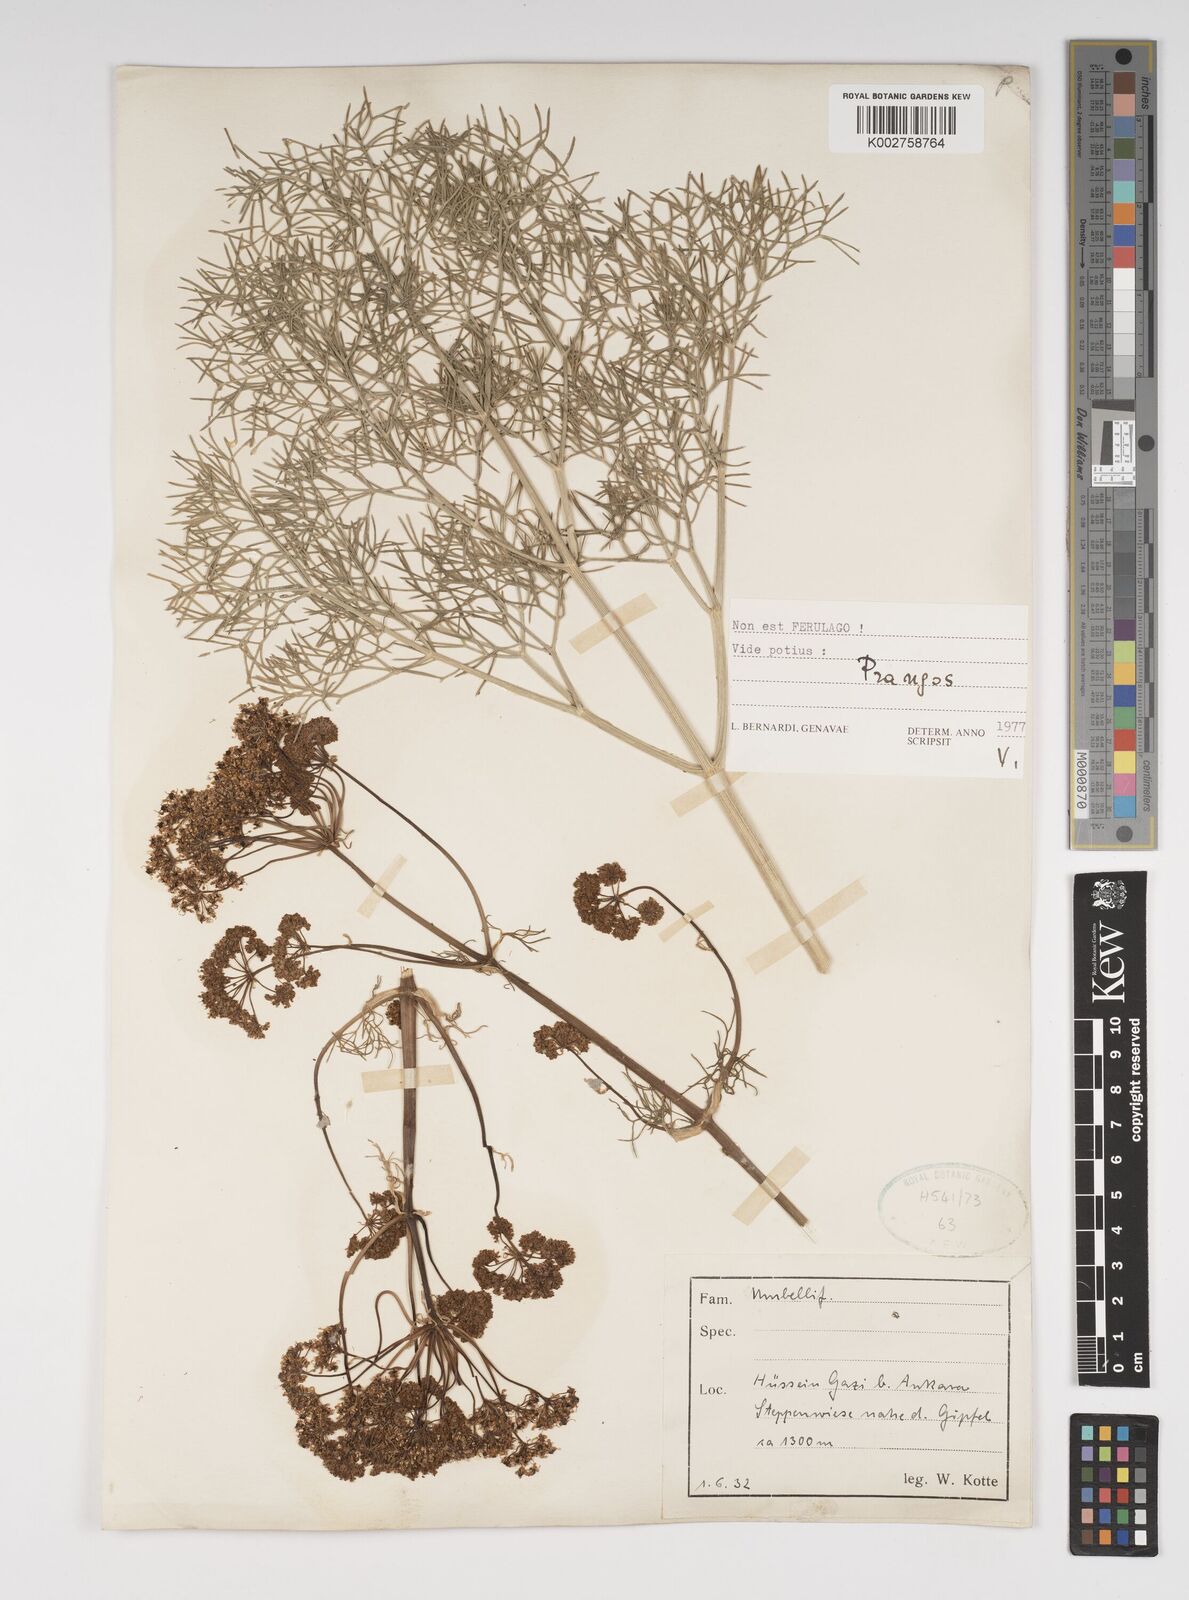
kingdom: Plantae
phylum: Tracheophyta
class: Magnoliopsida
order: Apiales
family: Apiaceae
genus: Cachrys
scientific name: Cachrys
